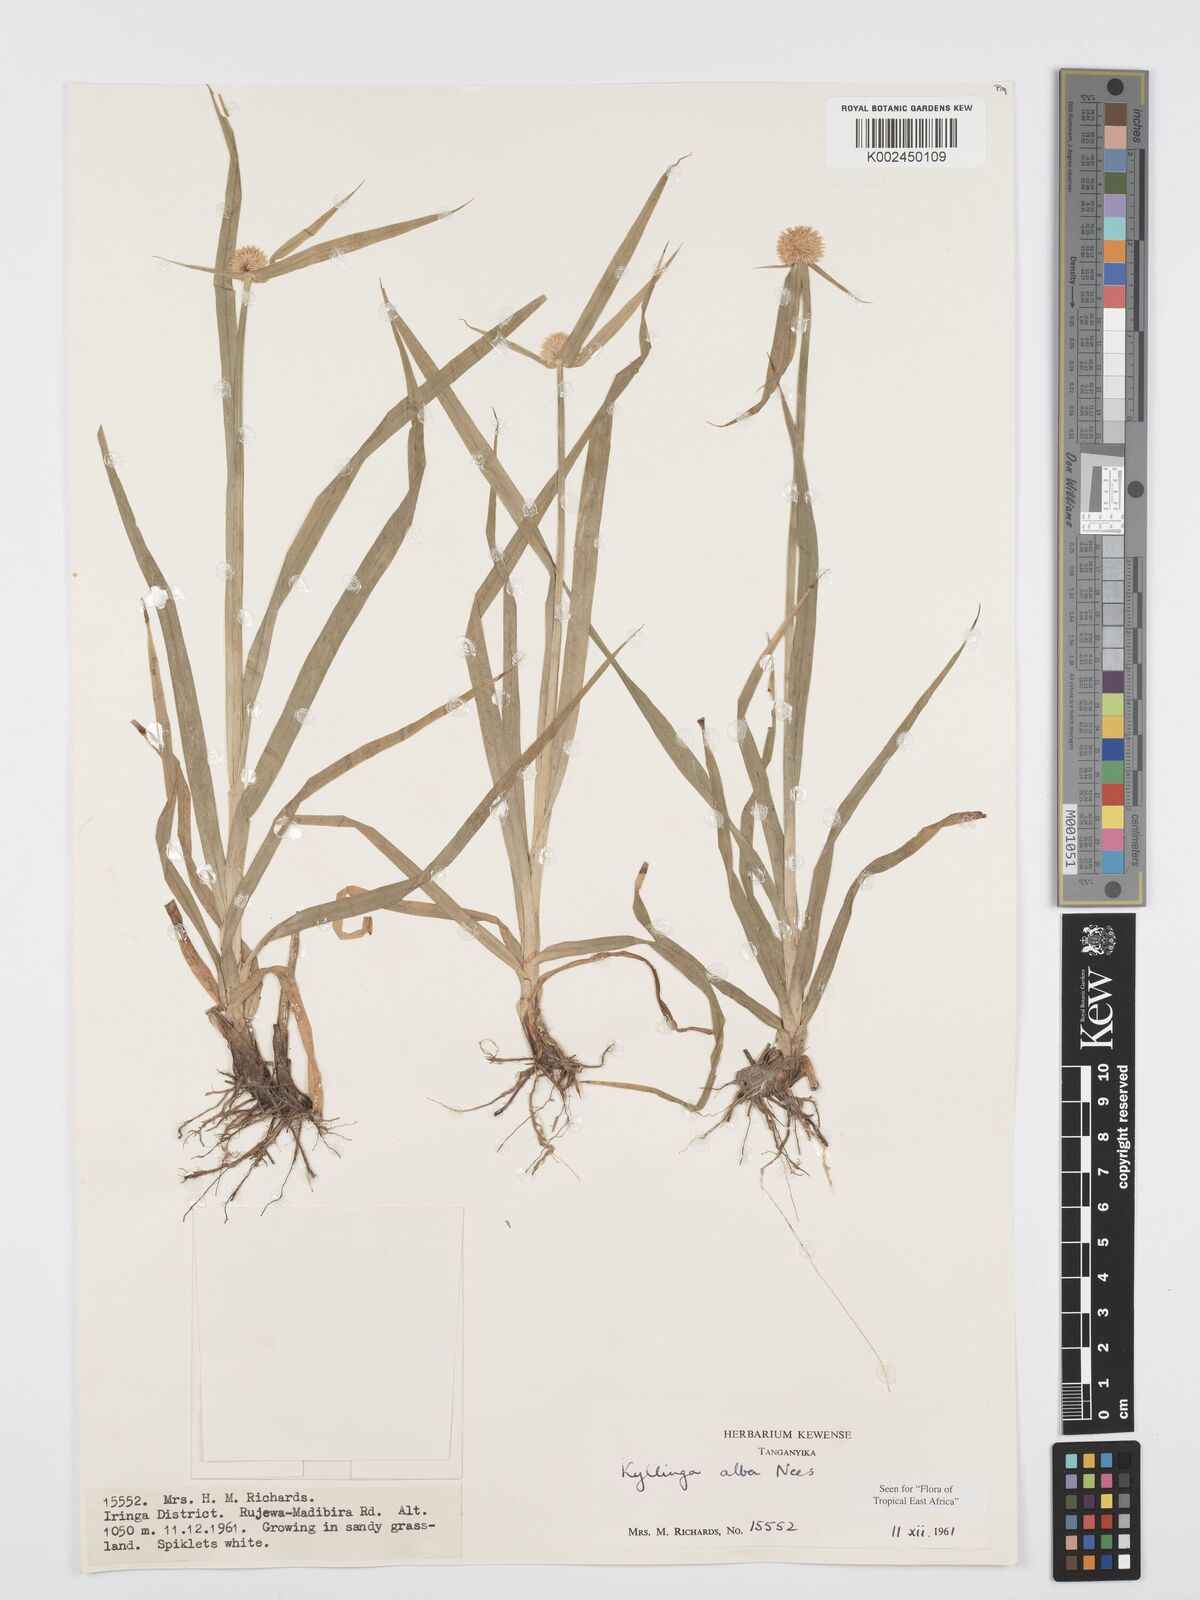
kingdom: Plantae
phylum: Tracheophyta
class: Liliopsida
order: Poales
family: Cyperaceae
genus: Cyperus
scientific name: Cyperus
